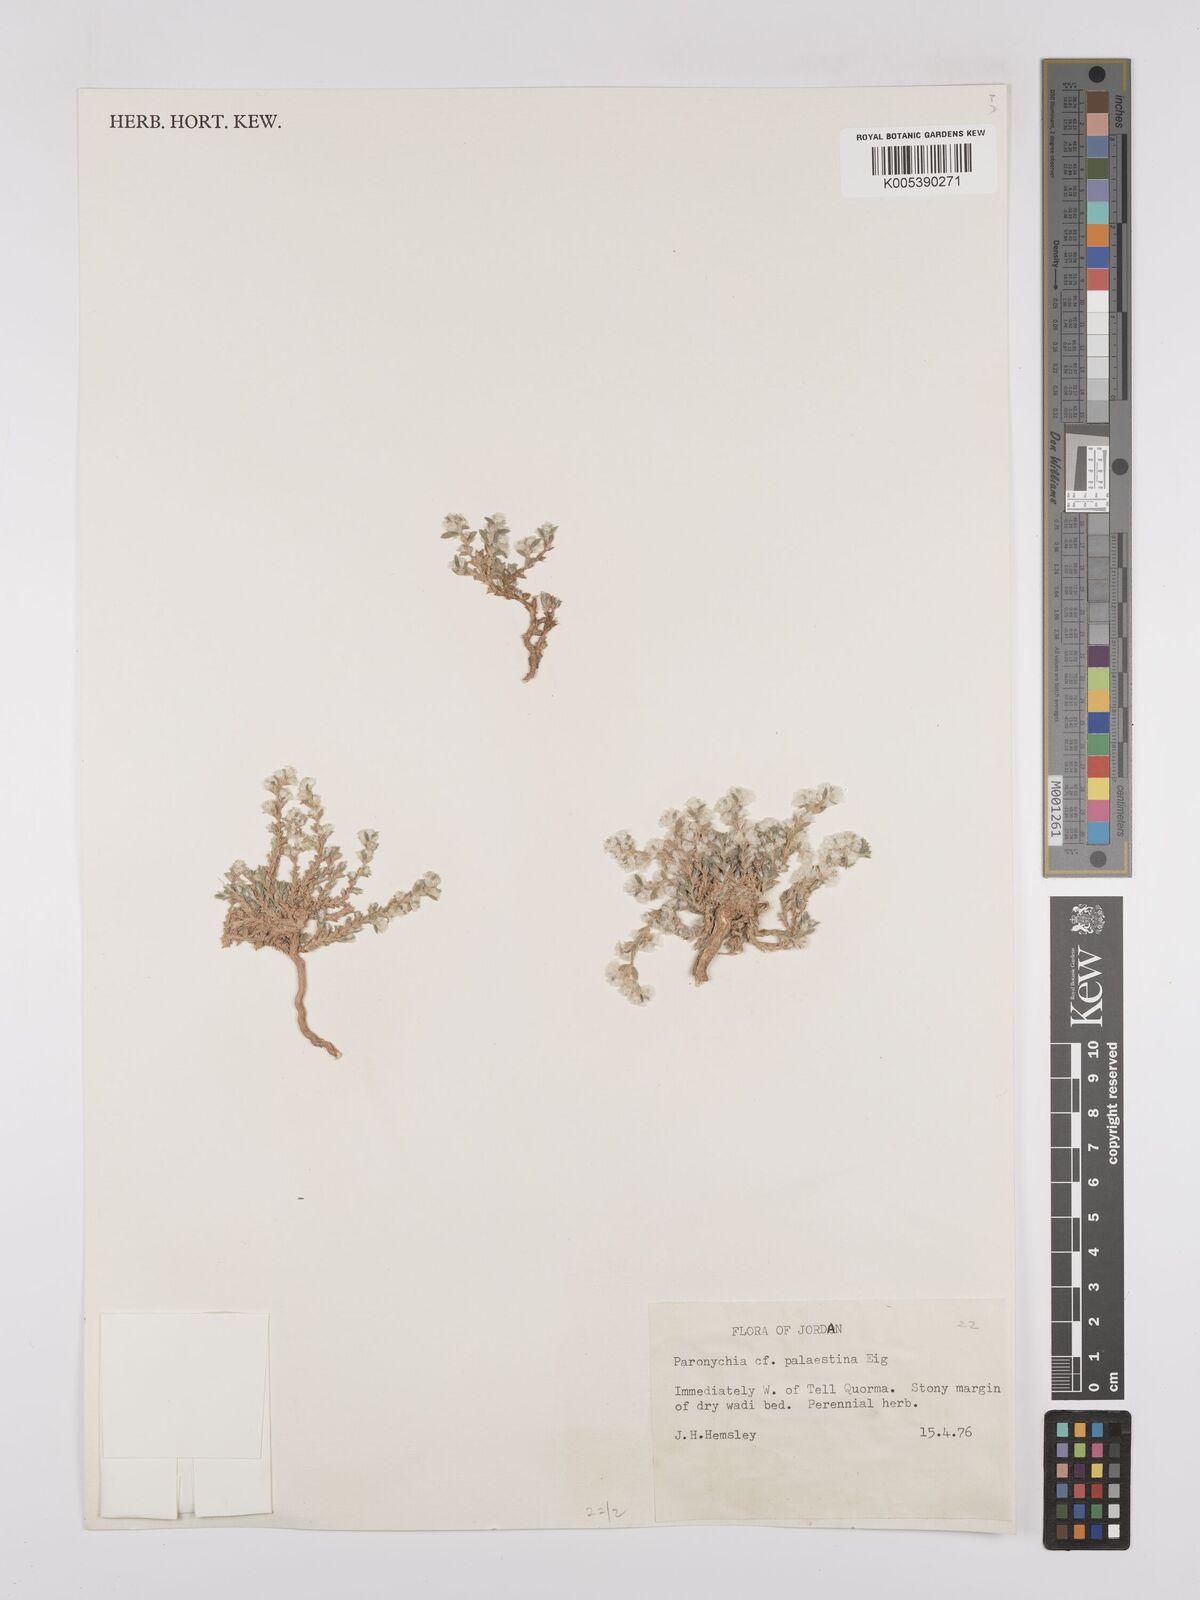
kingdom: Plantae
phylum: Tracheophyta
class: Magnoliopsida
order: Caryophyllales
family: Caryophyllaceae
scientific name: Caryophyllaceae
